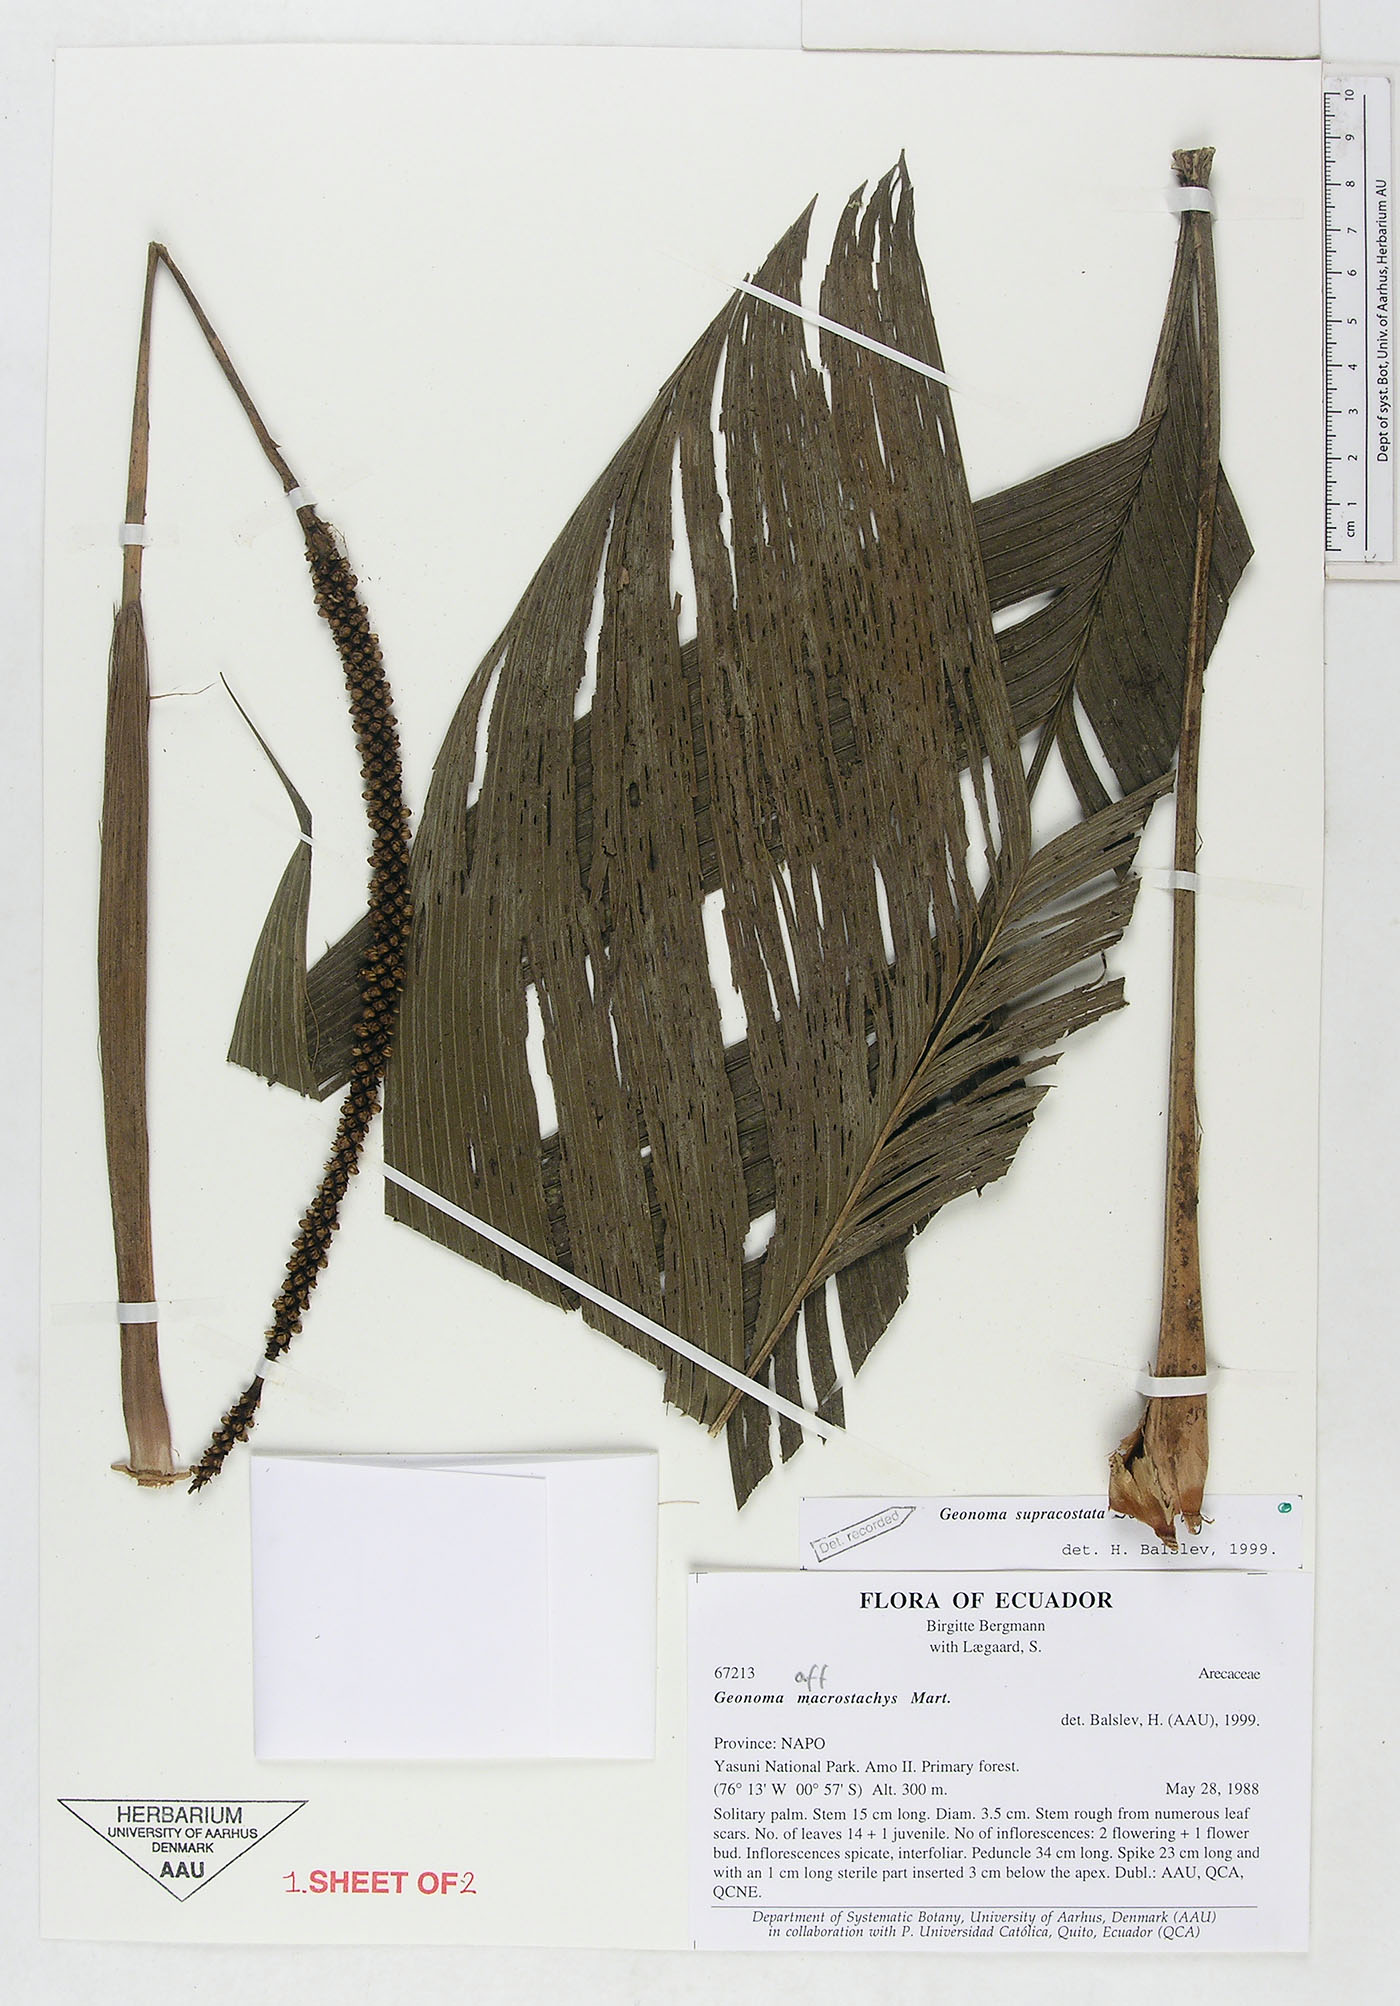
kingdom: Plantae
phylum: Tracheophyta
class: Liliopsida
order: Arecales
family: Arecaceae
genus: Geonoma
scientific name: Geonoma macrostachys
